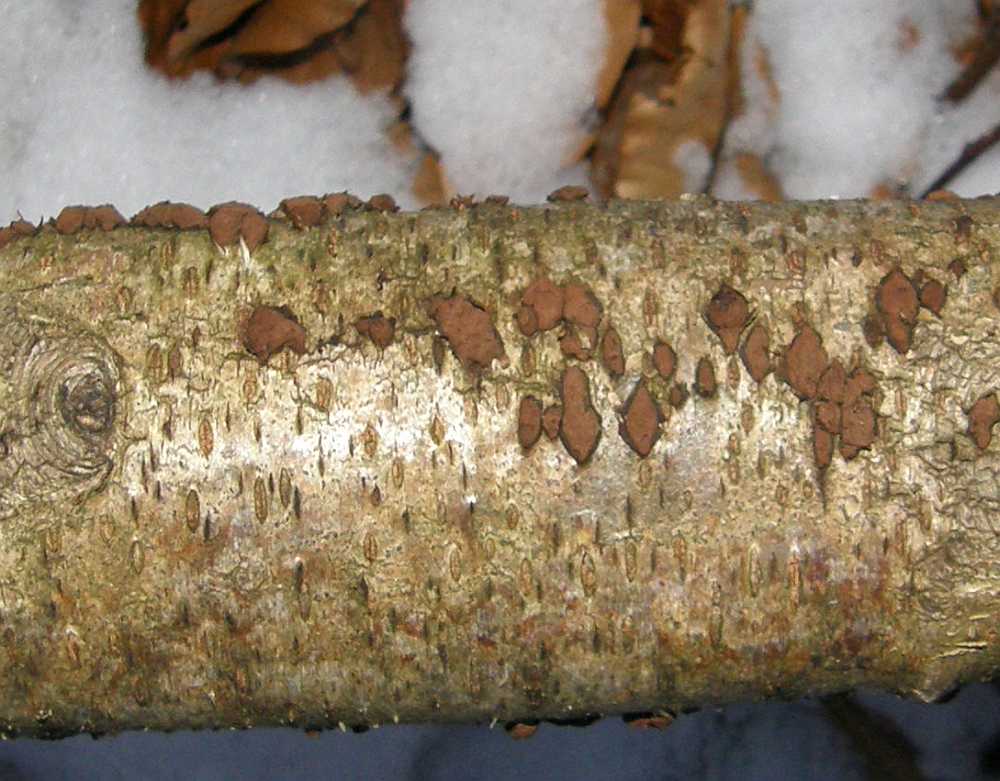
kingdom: Fungi
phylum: Ascomycota
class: Sordariomycetes
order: Xylariales
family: Hypoxylaceae
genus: Jackrogersella
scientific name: Jackrogersella multiformis
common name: foranderlig kulbær
